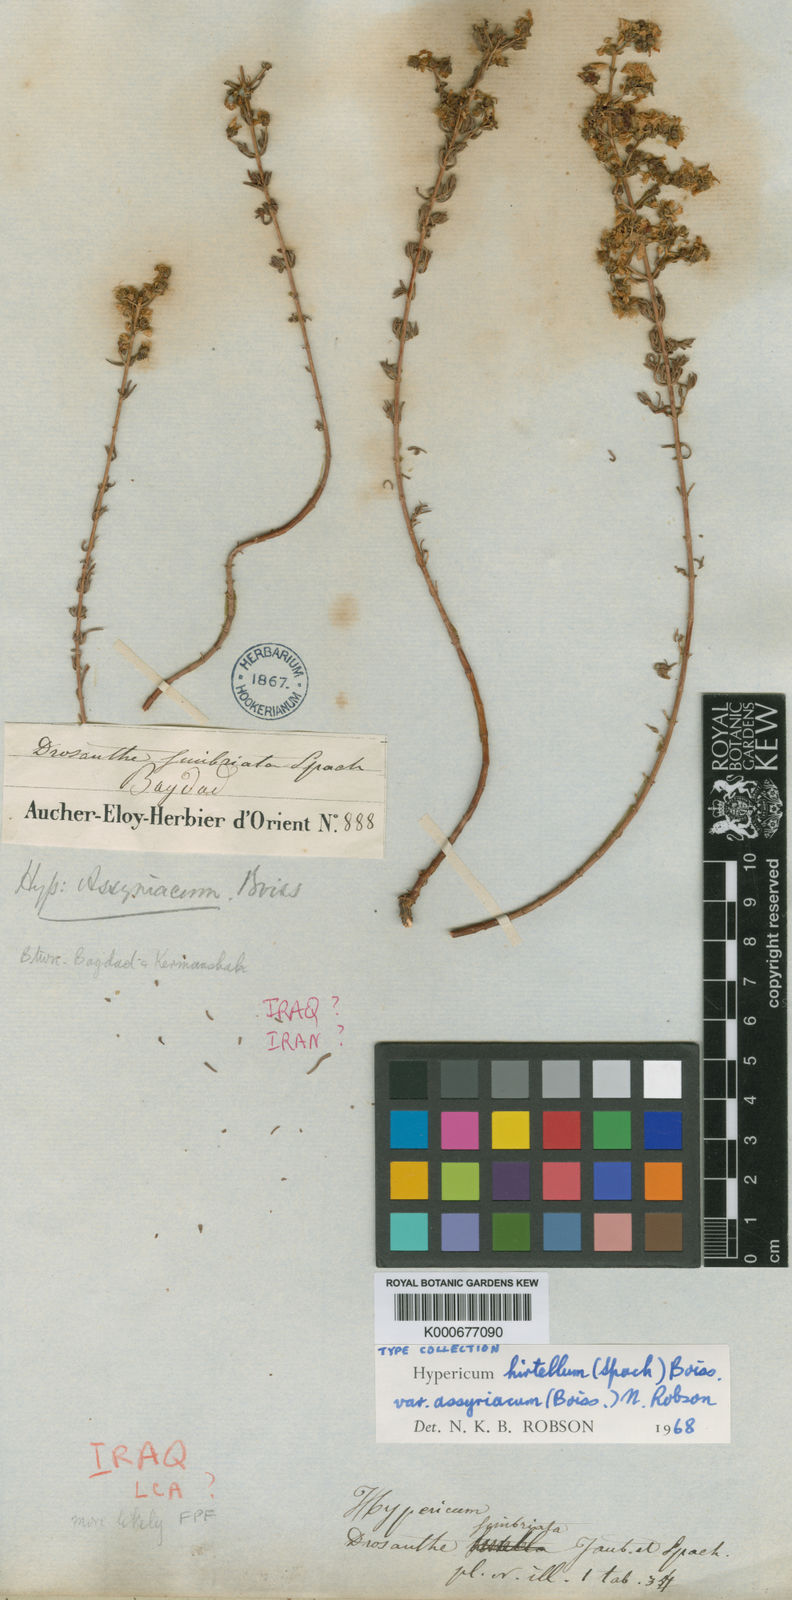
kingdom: Plantae
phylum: Tracheophyta
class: Magnoliopsida
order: Malpighiales
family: Hypericaceae
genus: Hypericum
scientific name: Hypericum hirtellum
